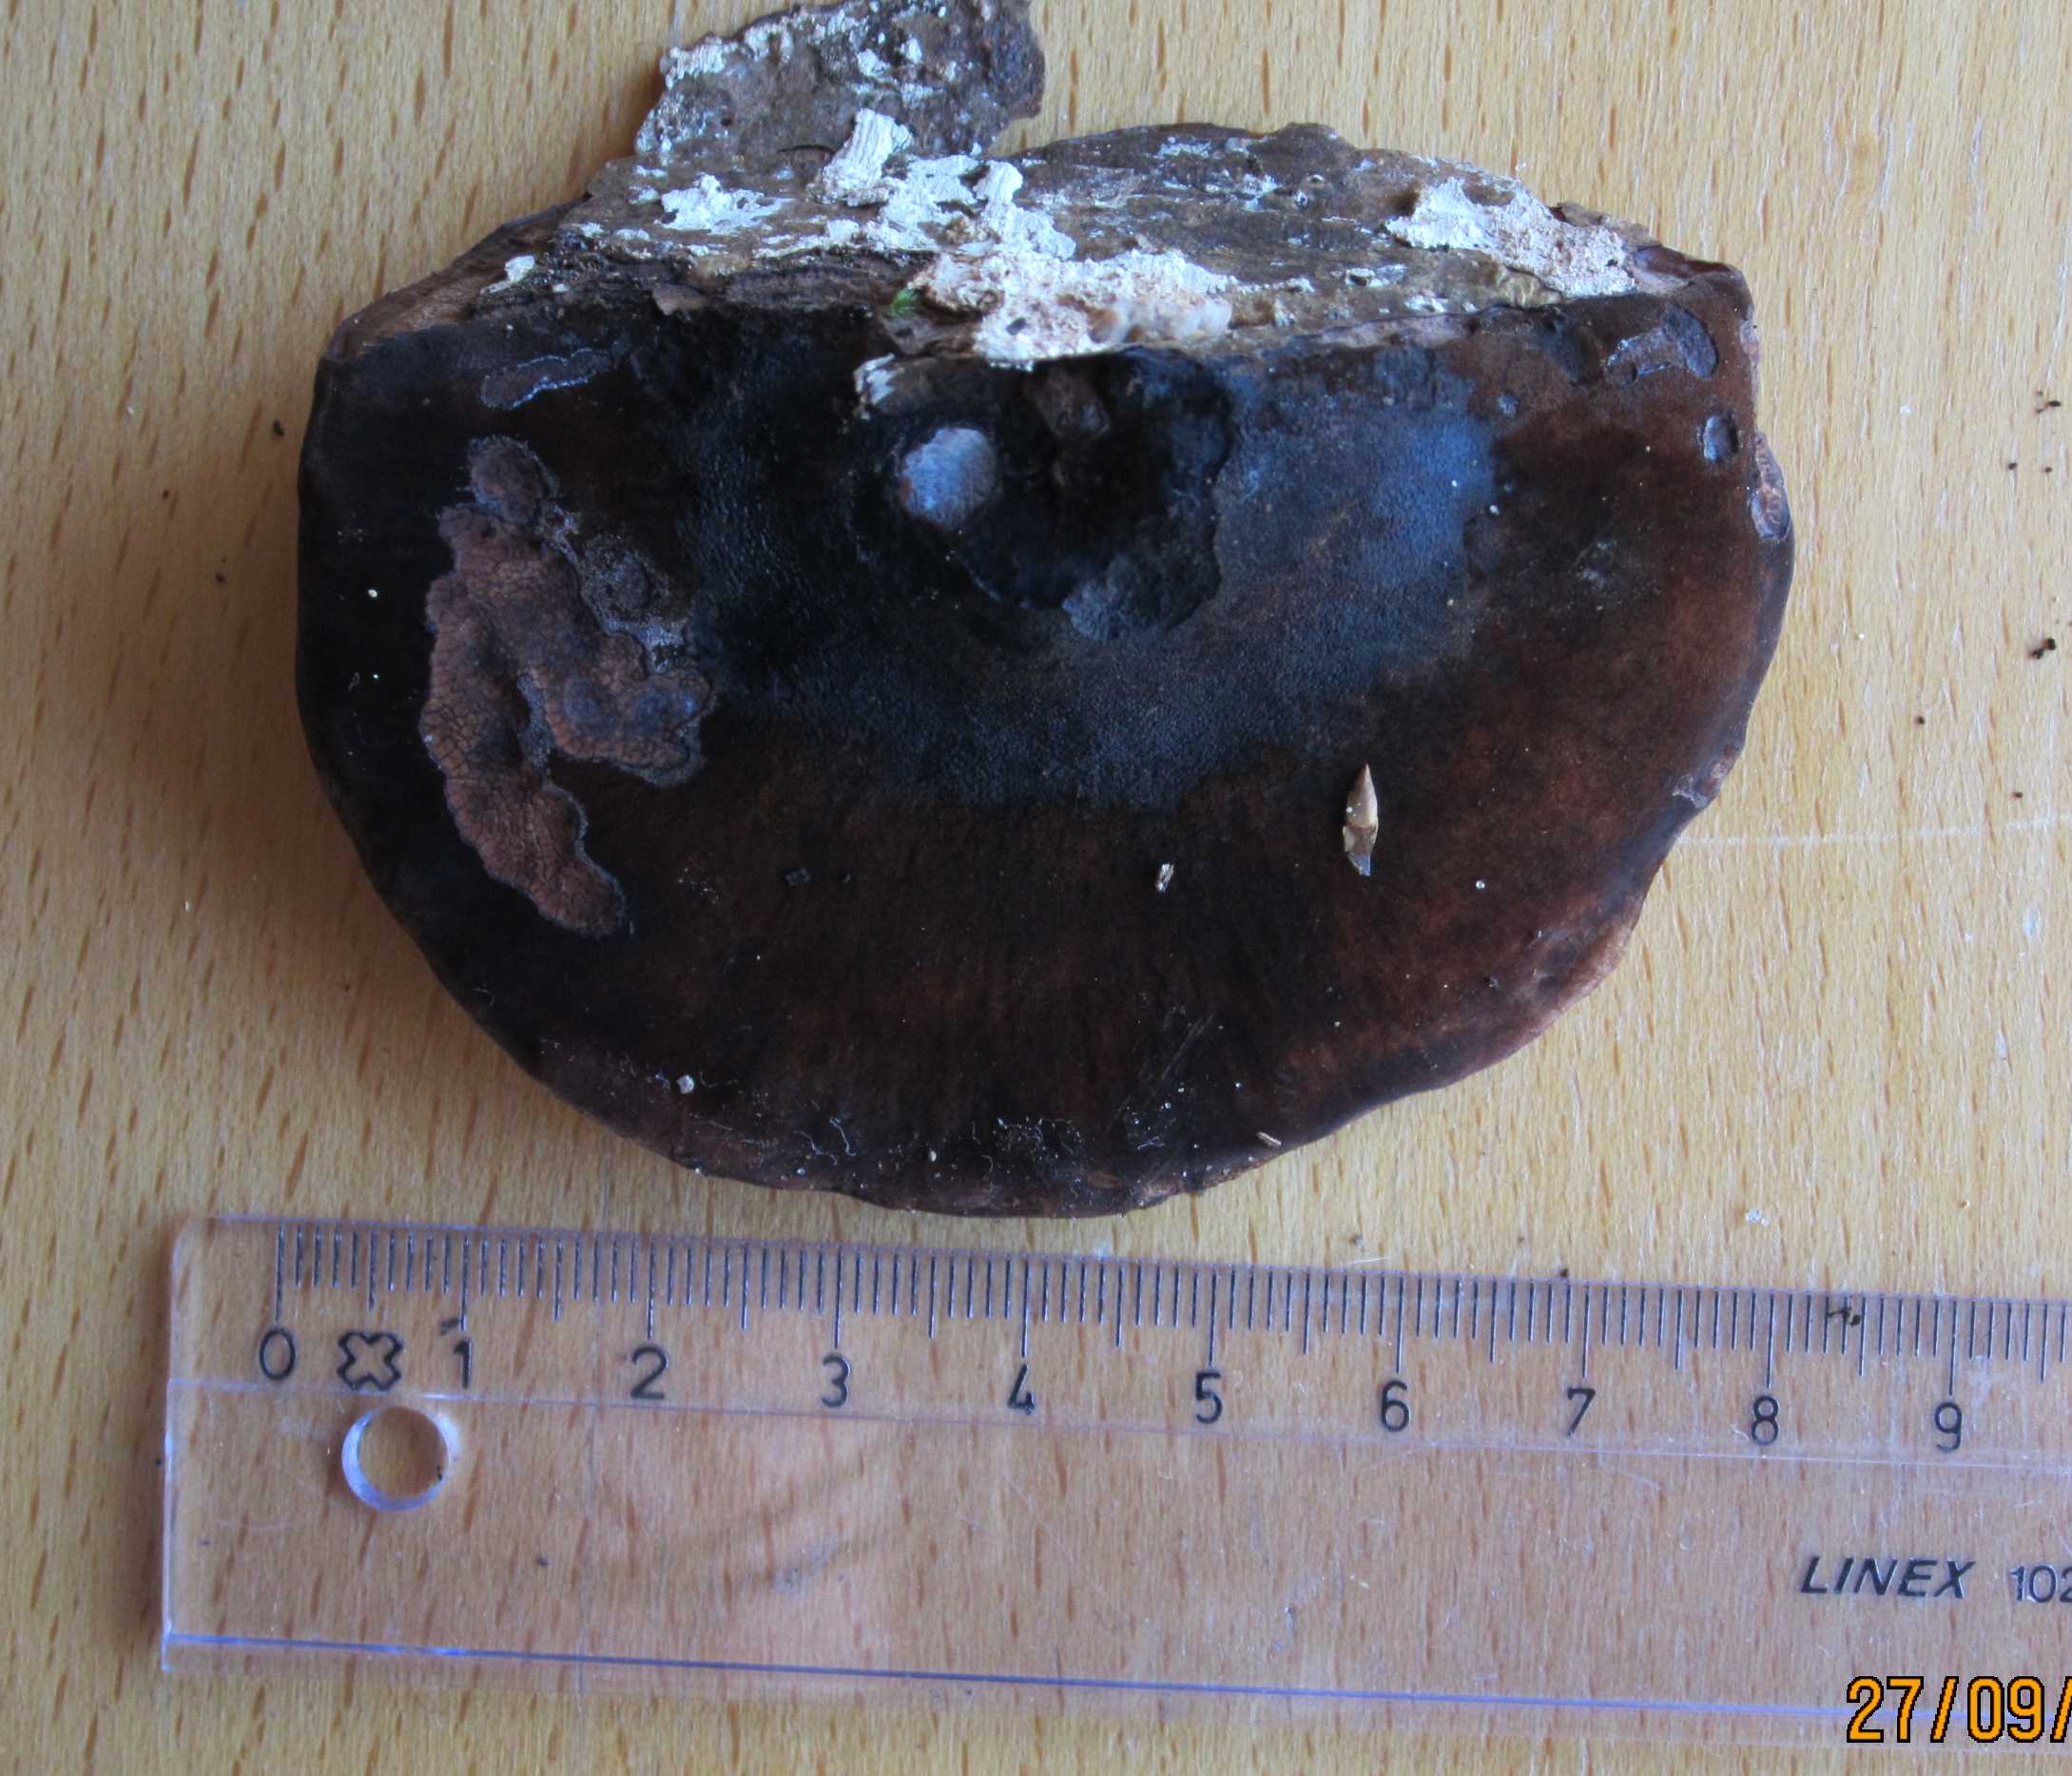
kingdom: Fungi
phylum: Basidiomycota
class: Agaricomycetes
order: Polyporales
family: Ischnodermataceae
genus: Ischnoderma
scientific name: Ischnoderma resinosum
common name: løv-tjæreporesvamp
